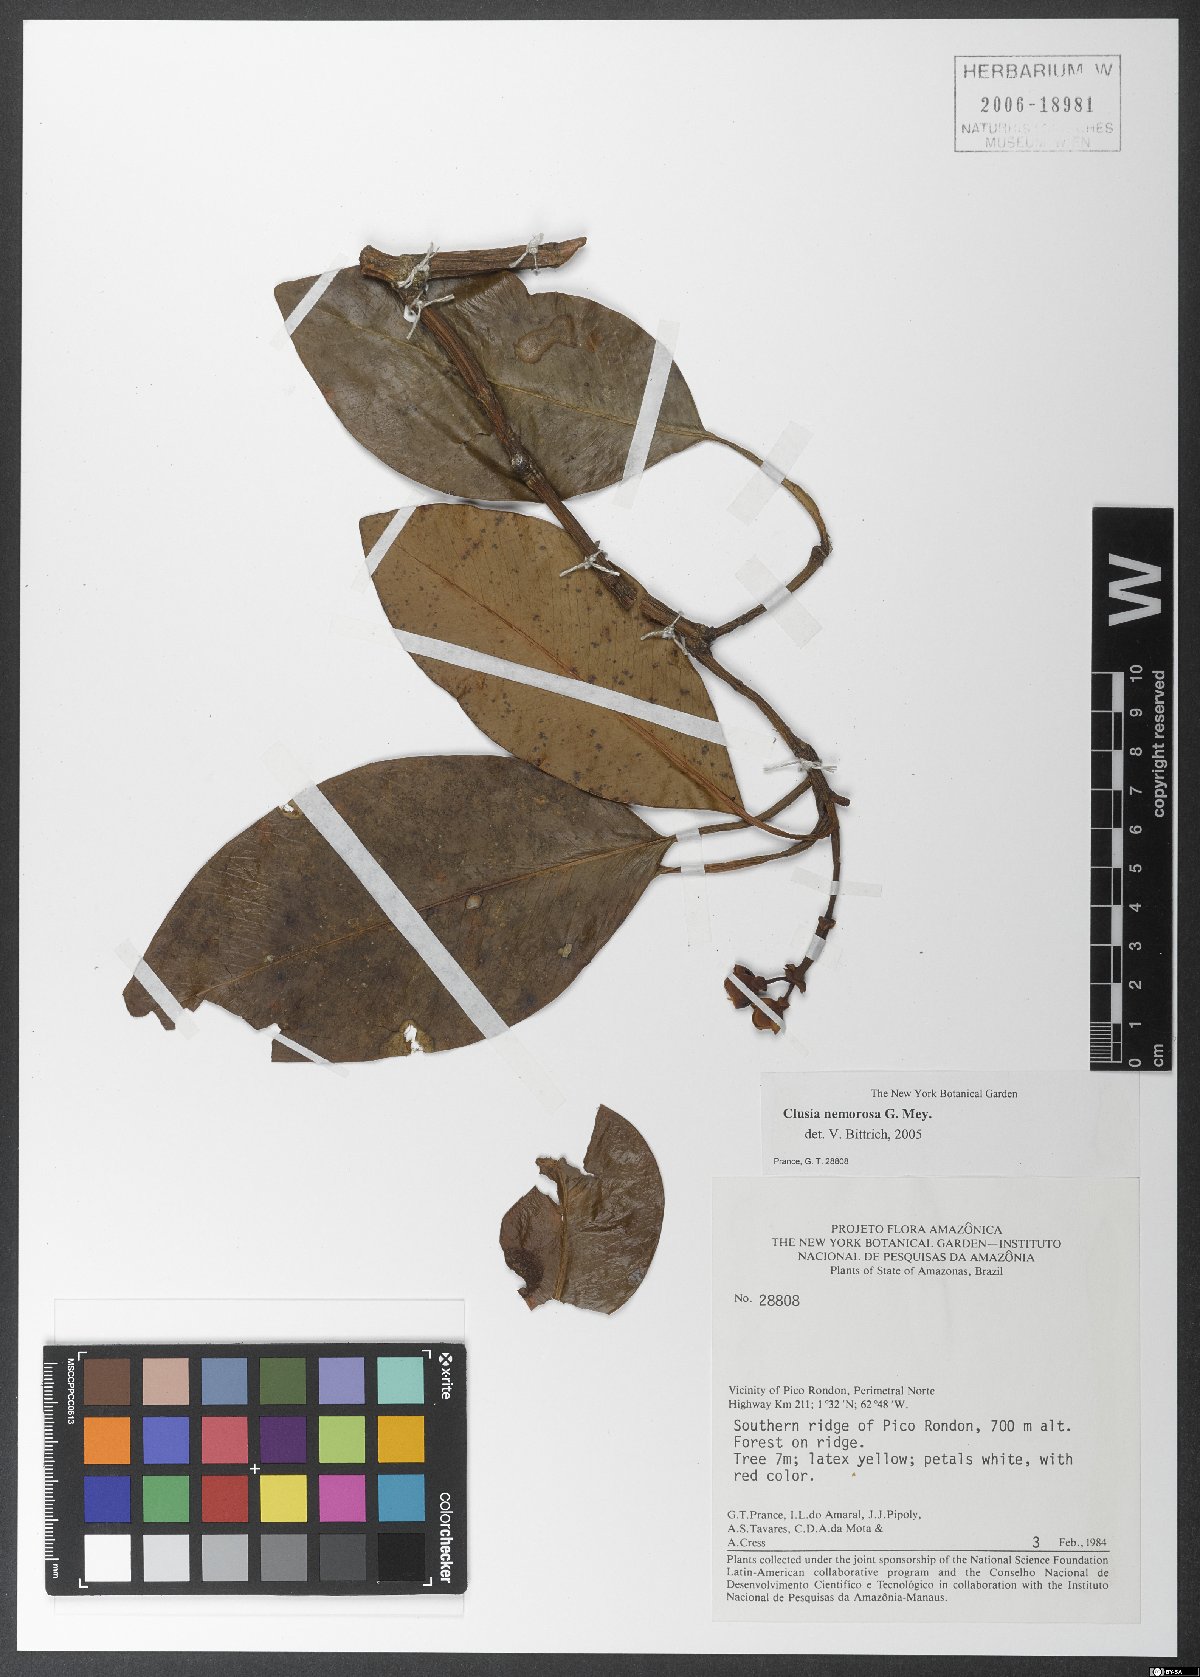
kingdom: Plantae
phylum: Tracheophyta
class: Magnoliopsida
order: Malpighiales
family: Clusiaceae
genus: Clusia
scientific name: Clusia nemorosa
